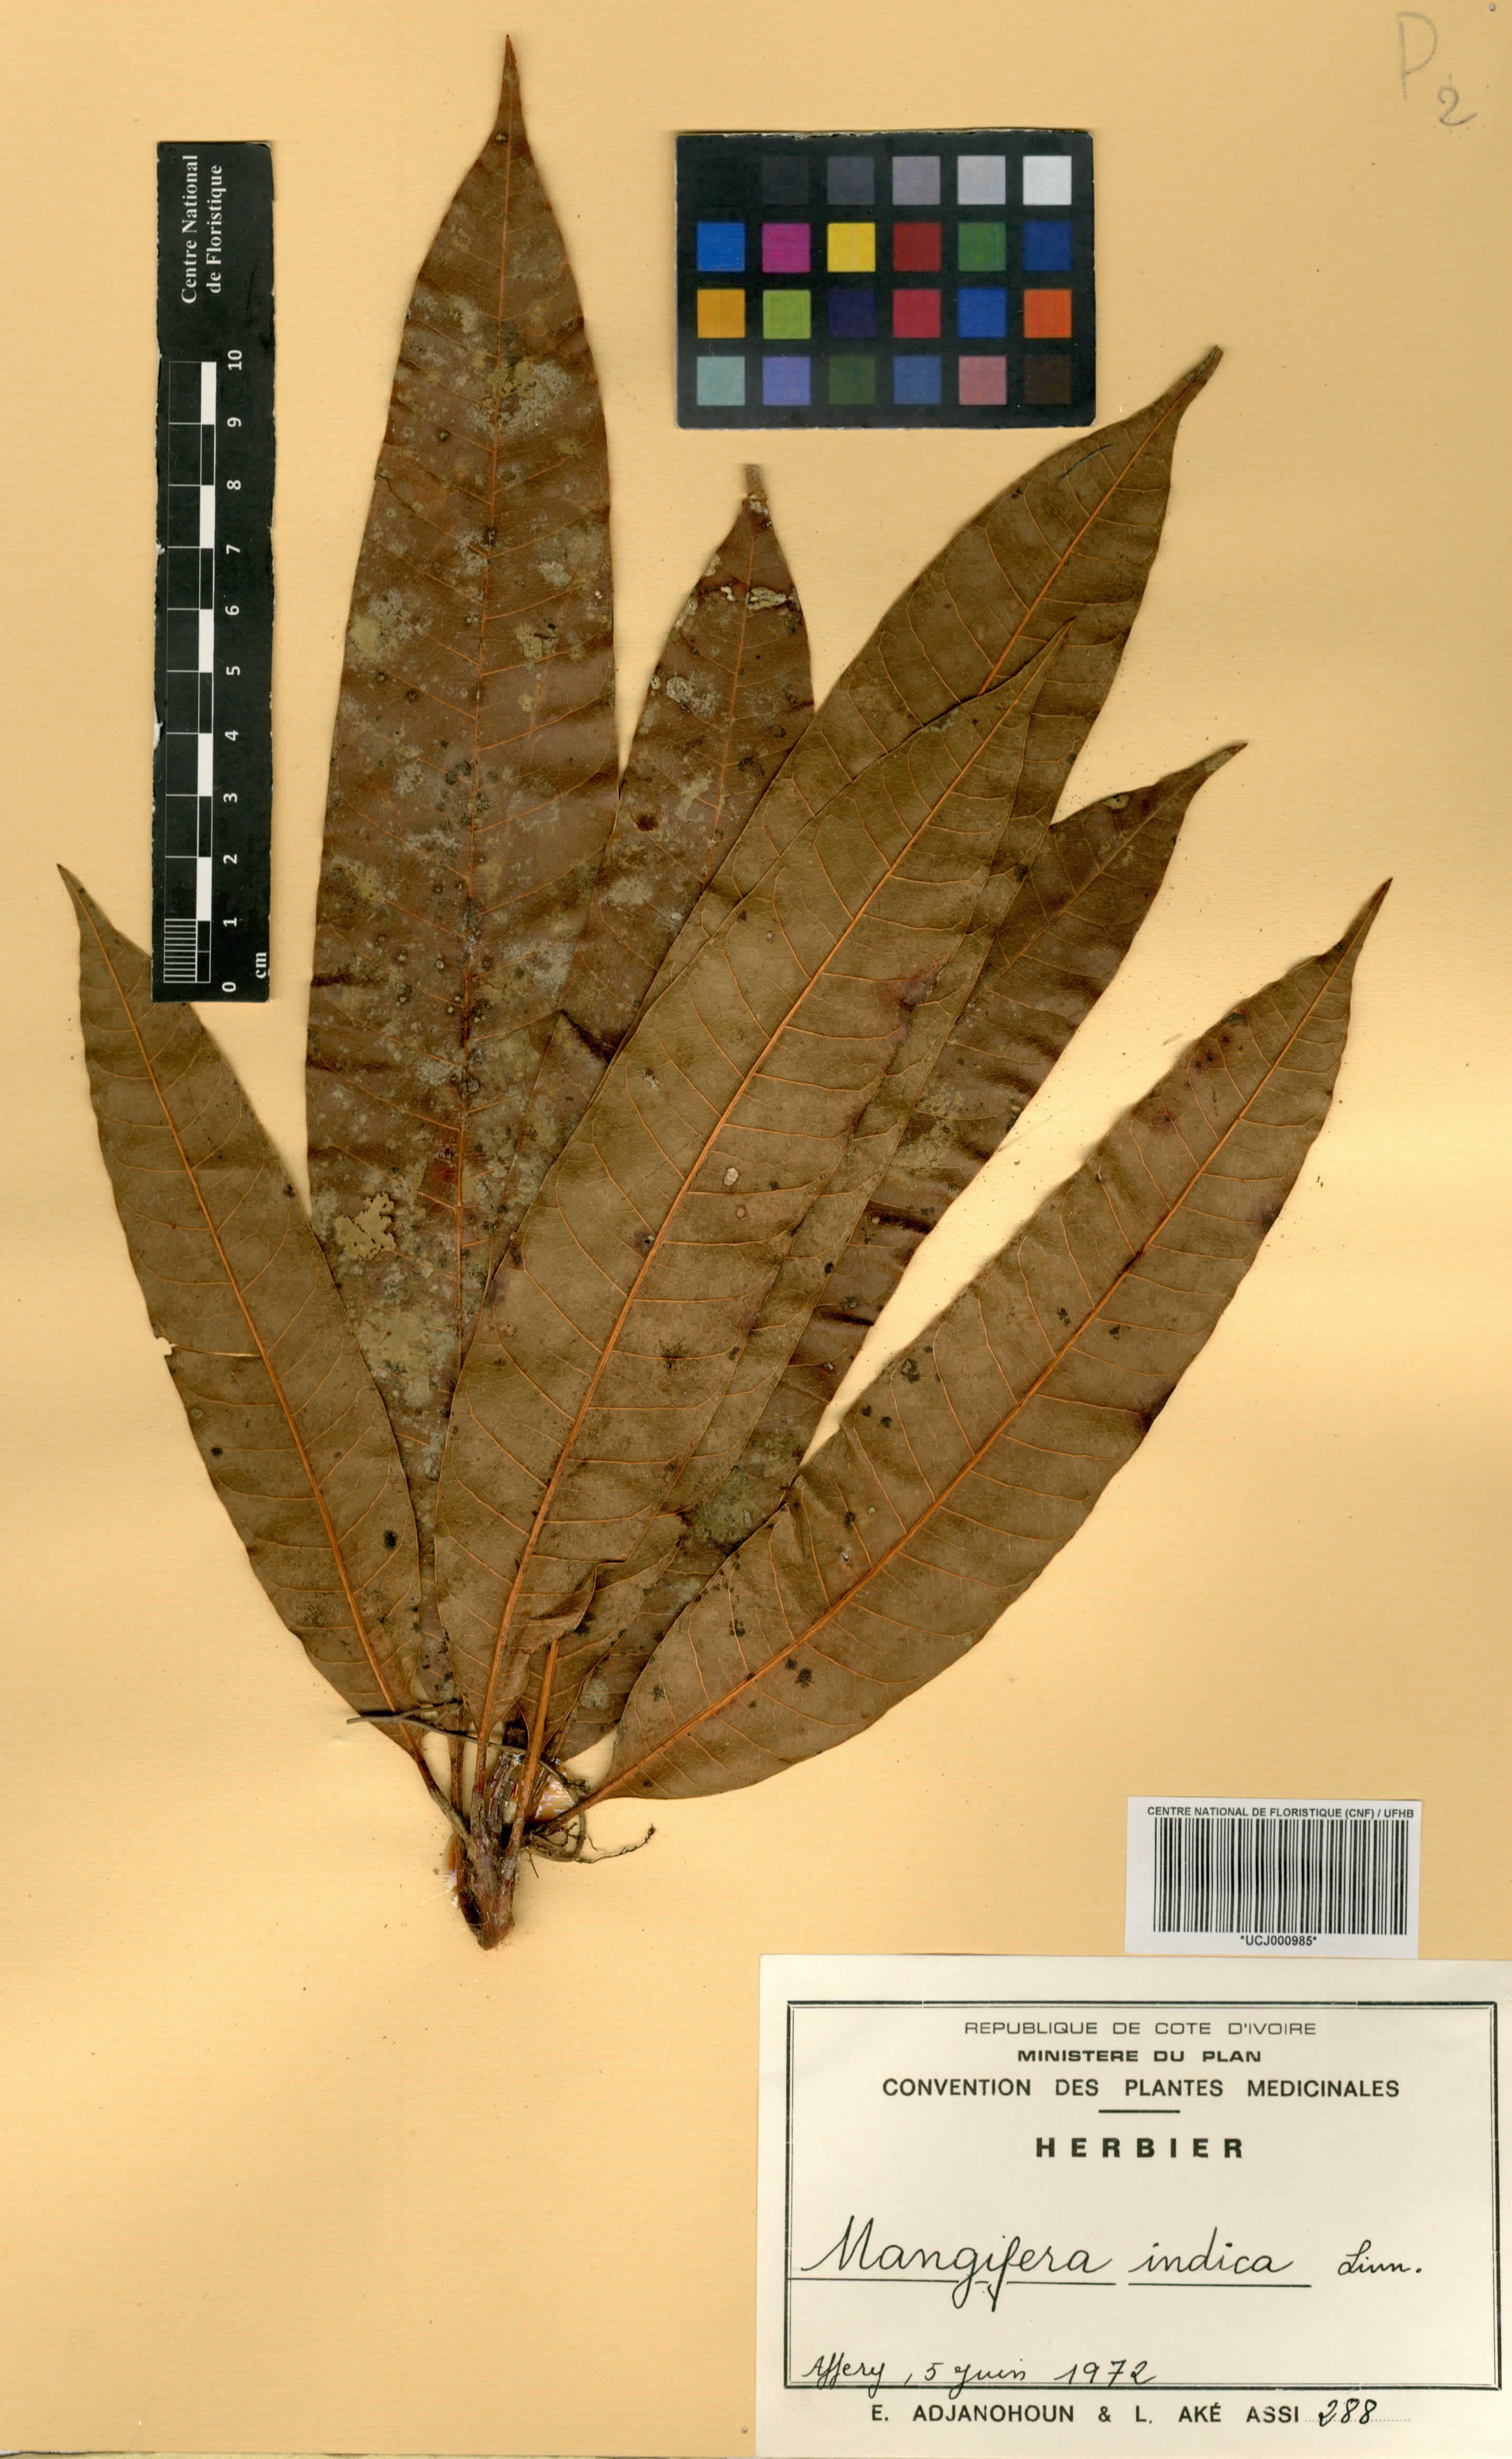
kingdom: Plantae
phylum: Tracheophyta
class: Magnoliopsida
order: Sapindales
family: Anacardiaceae
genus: Mangifera
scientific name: Mangifera indica
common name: Mango
